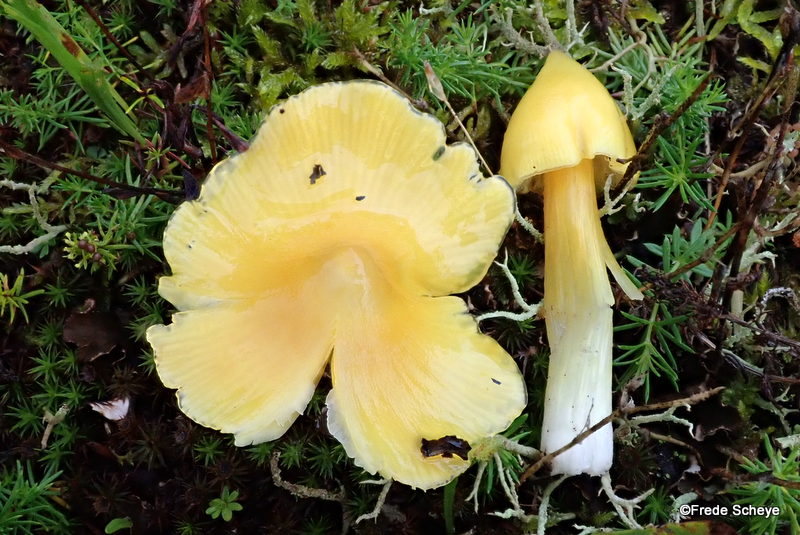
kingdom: Fungi
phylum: Basidiomycota
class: Agaricomycetes
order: Agaricales
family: Hygrophoraceae
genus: Hygrocybe
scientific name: Hygrocybe acutoconica
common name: spidspuklet vokshat
